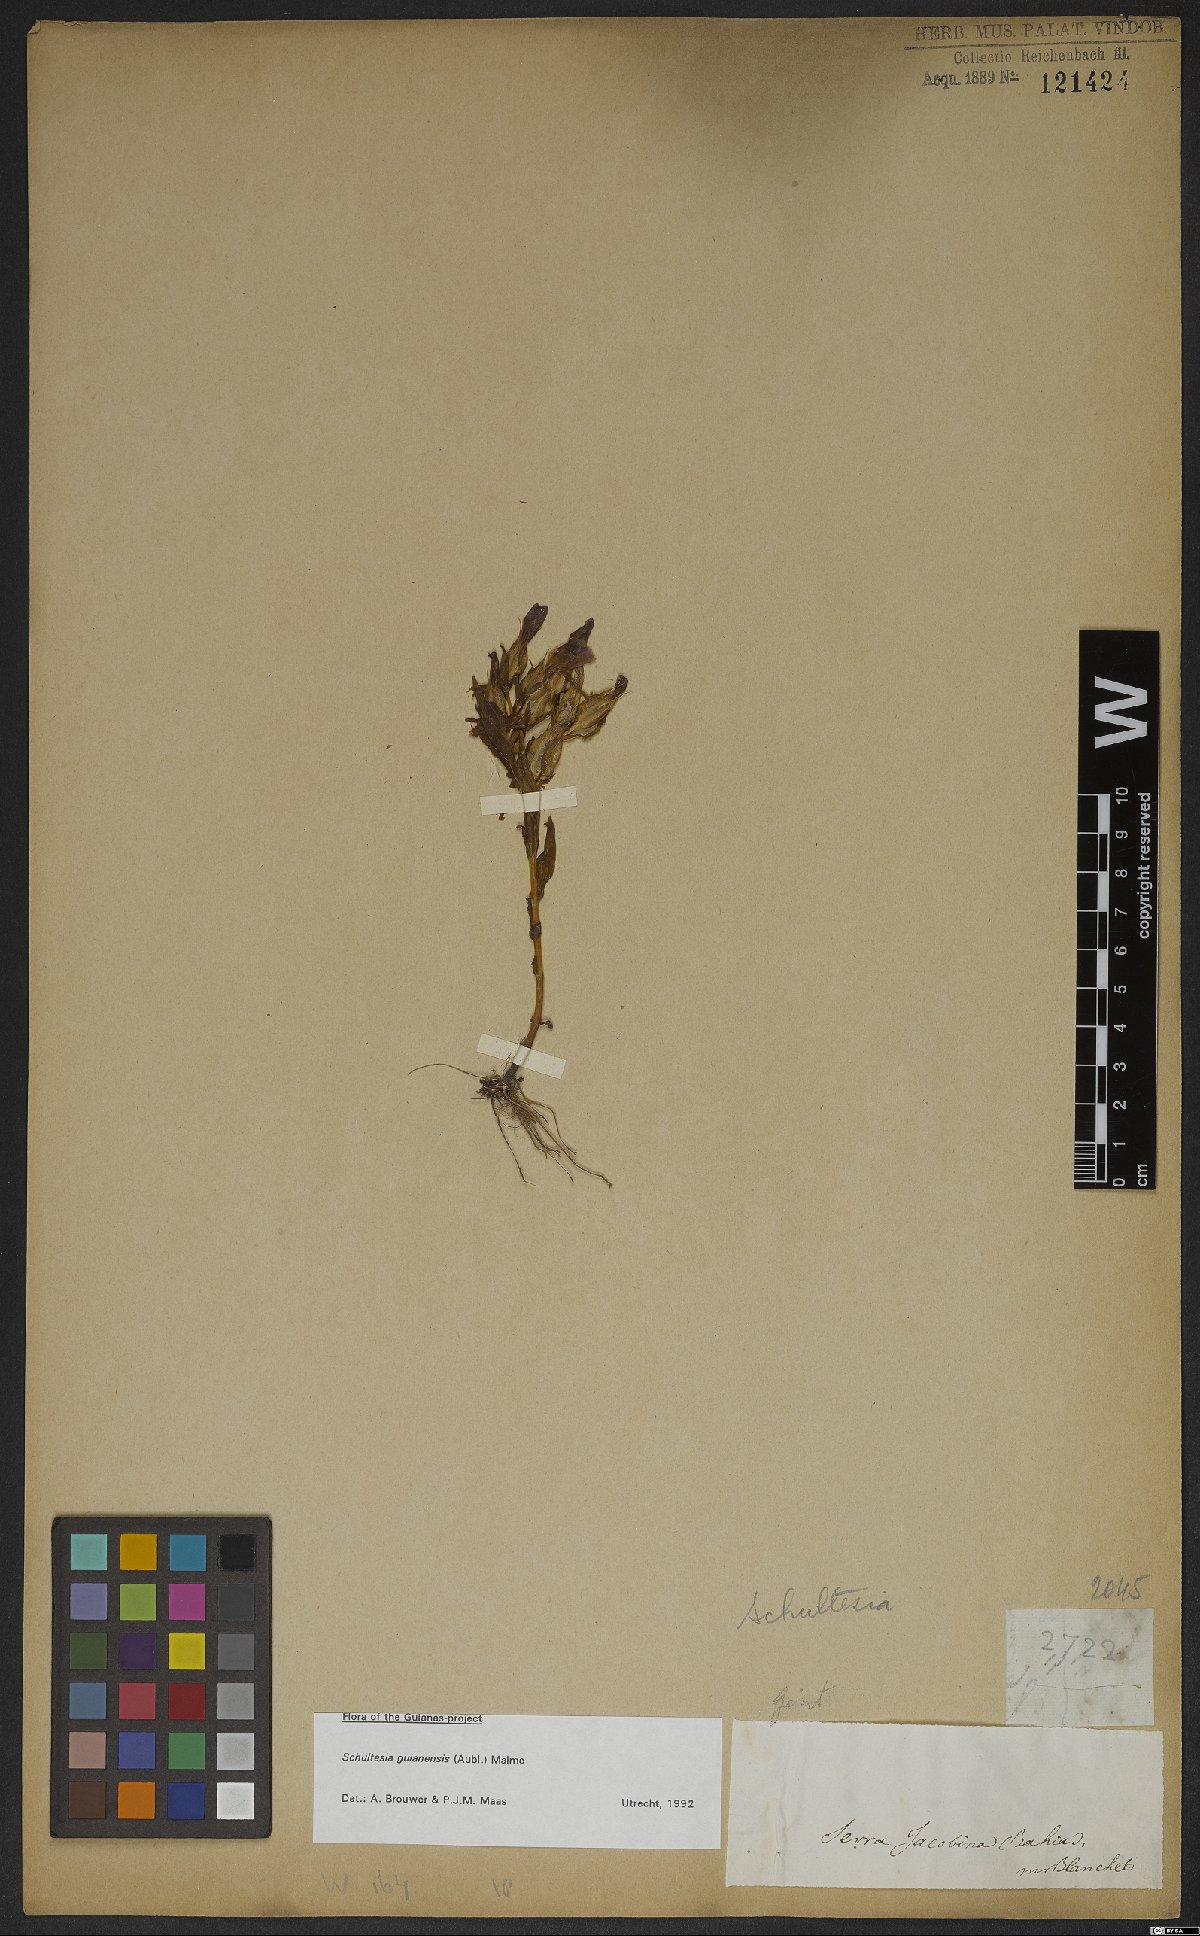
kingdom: Plantae
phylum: Tracheophyta
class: Magnoliopsida
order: Gentianales
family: Gentianaceae
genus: Schultesia
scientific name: Schultesia guianensis
